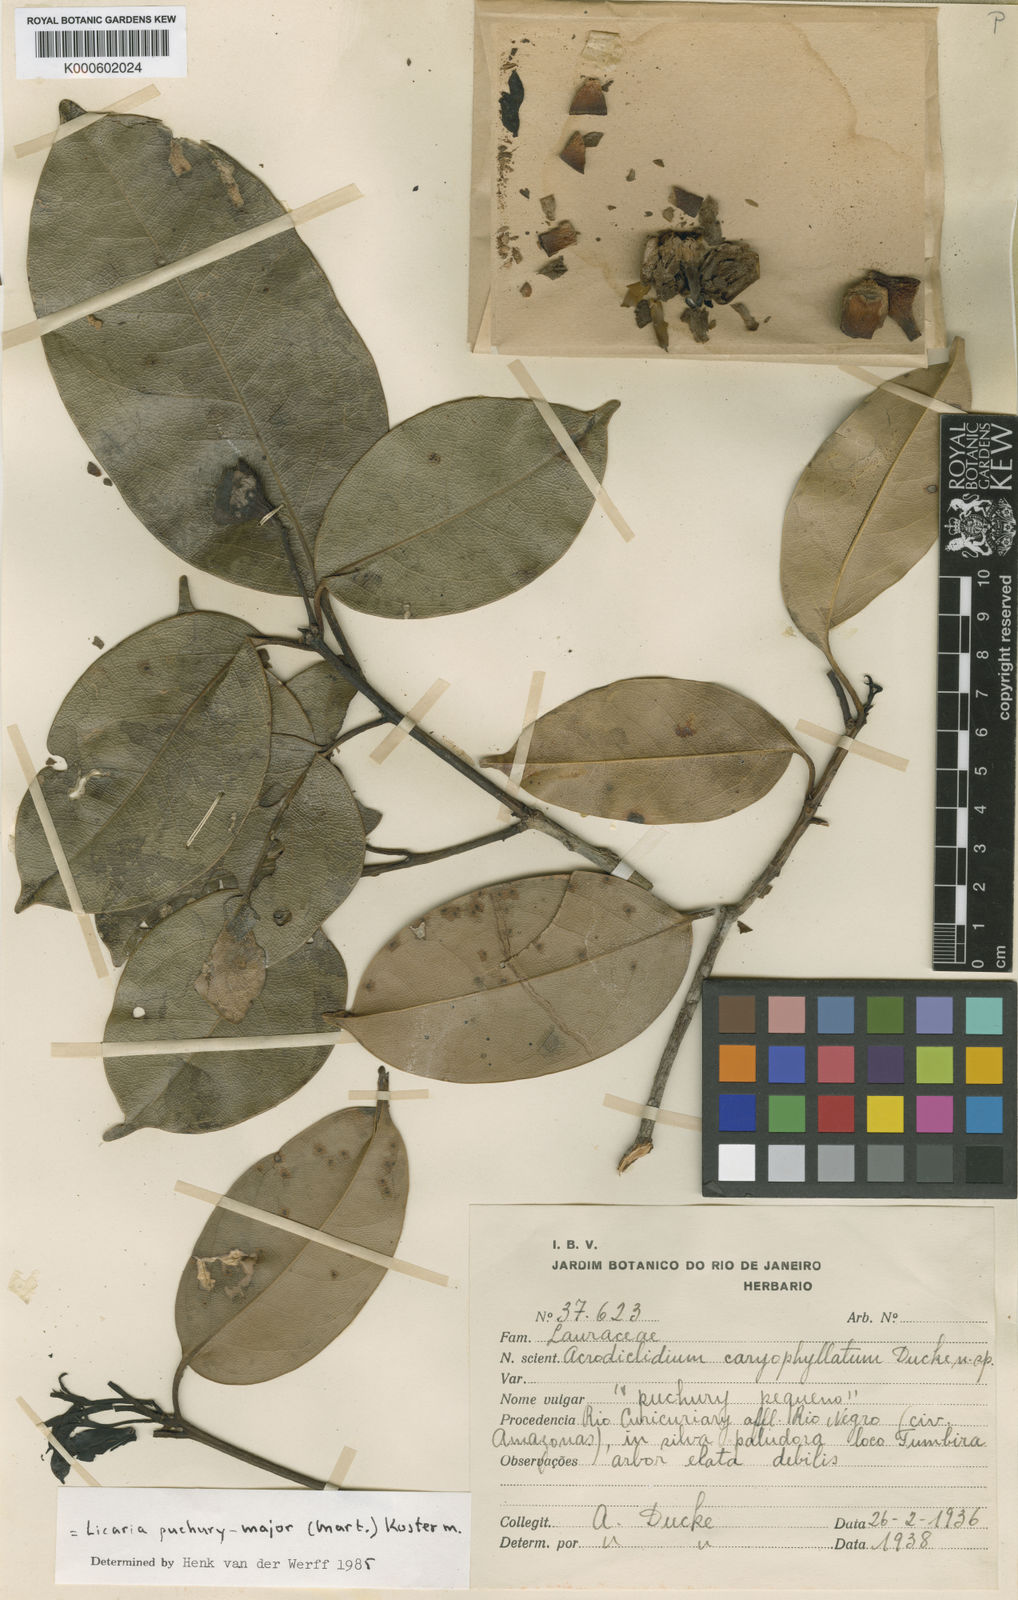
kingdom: Plantae
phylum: Tracheophyta
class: Magnoliopsida
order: Laurales
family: Lauraceae
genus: Aniba
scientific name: Aniba puchury-minor
